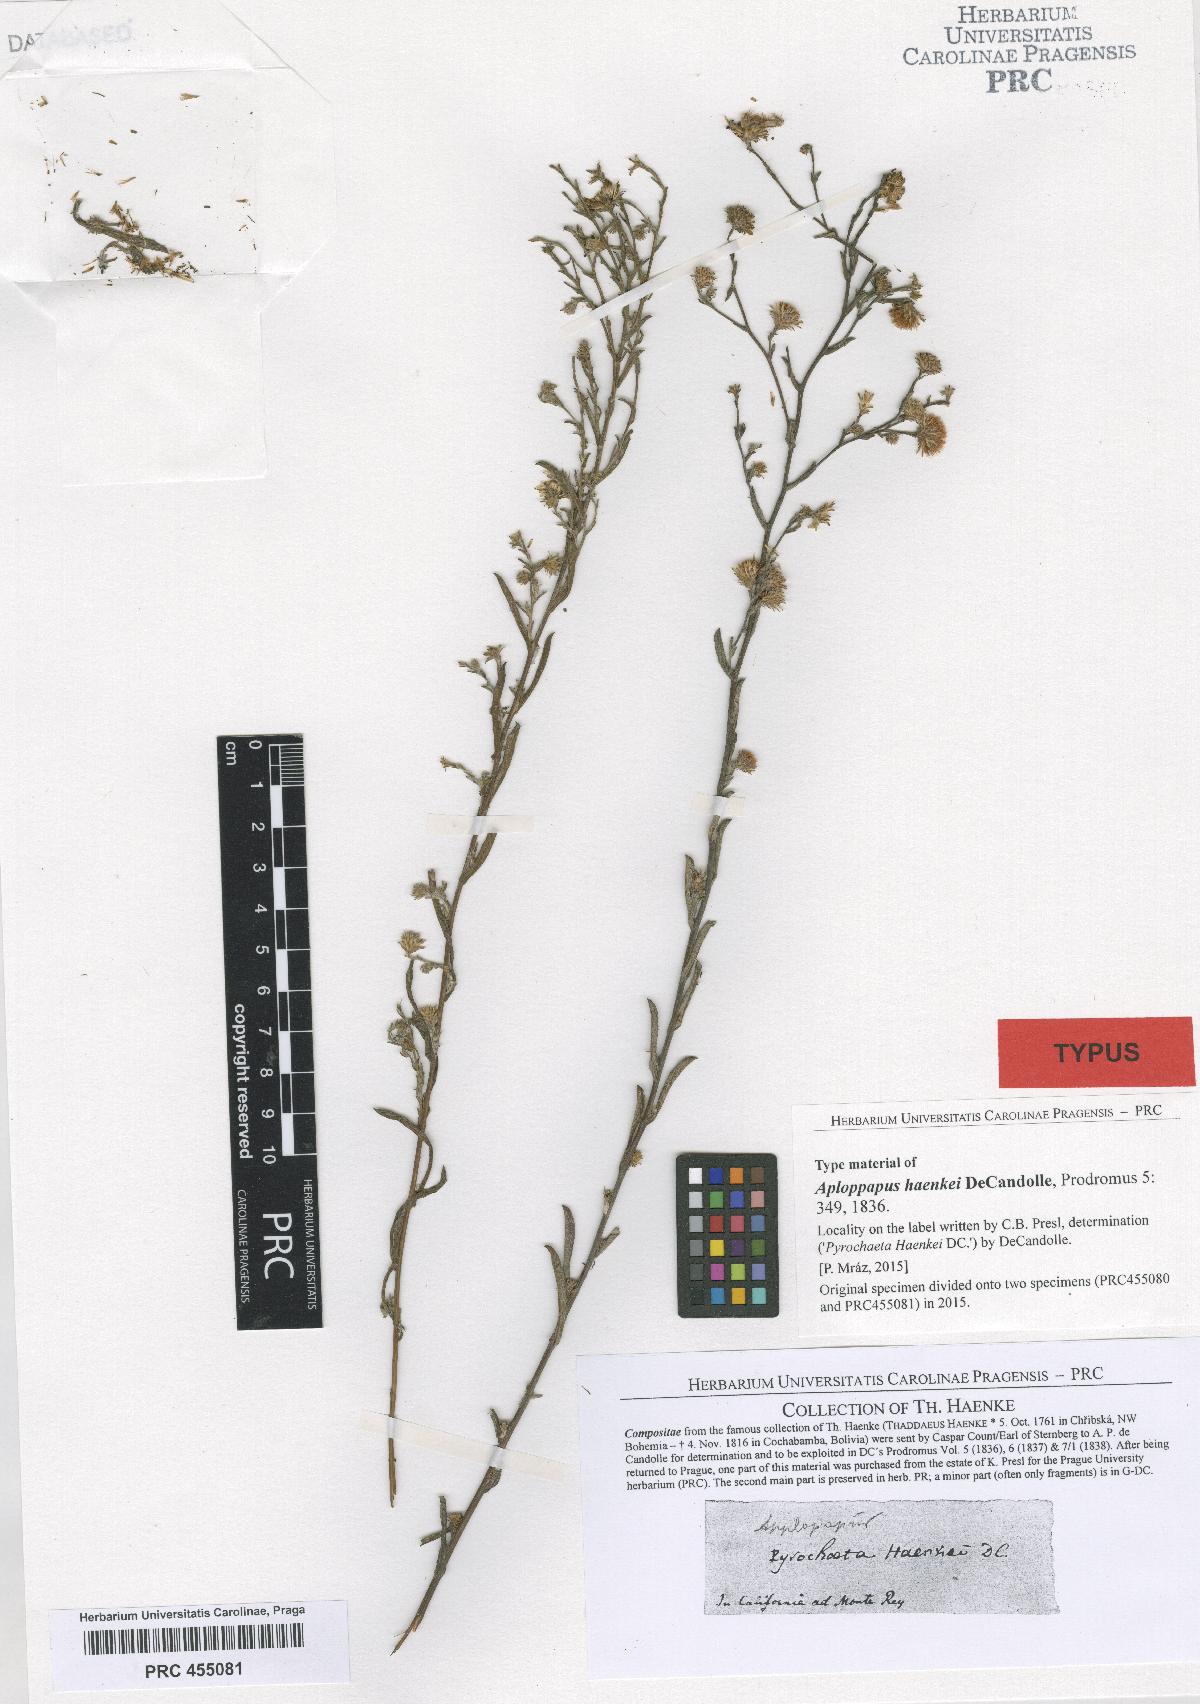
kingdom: Plantae
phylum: Tracheophyta
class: Magnoliopsida
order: Asterales
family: Asteraceae
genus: Corethrogyne
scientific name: Corethrogyne filaginifolia
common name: Sand-aster
